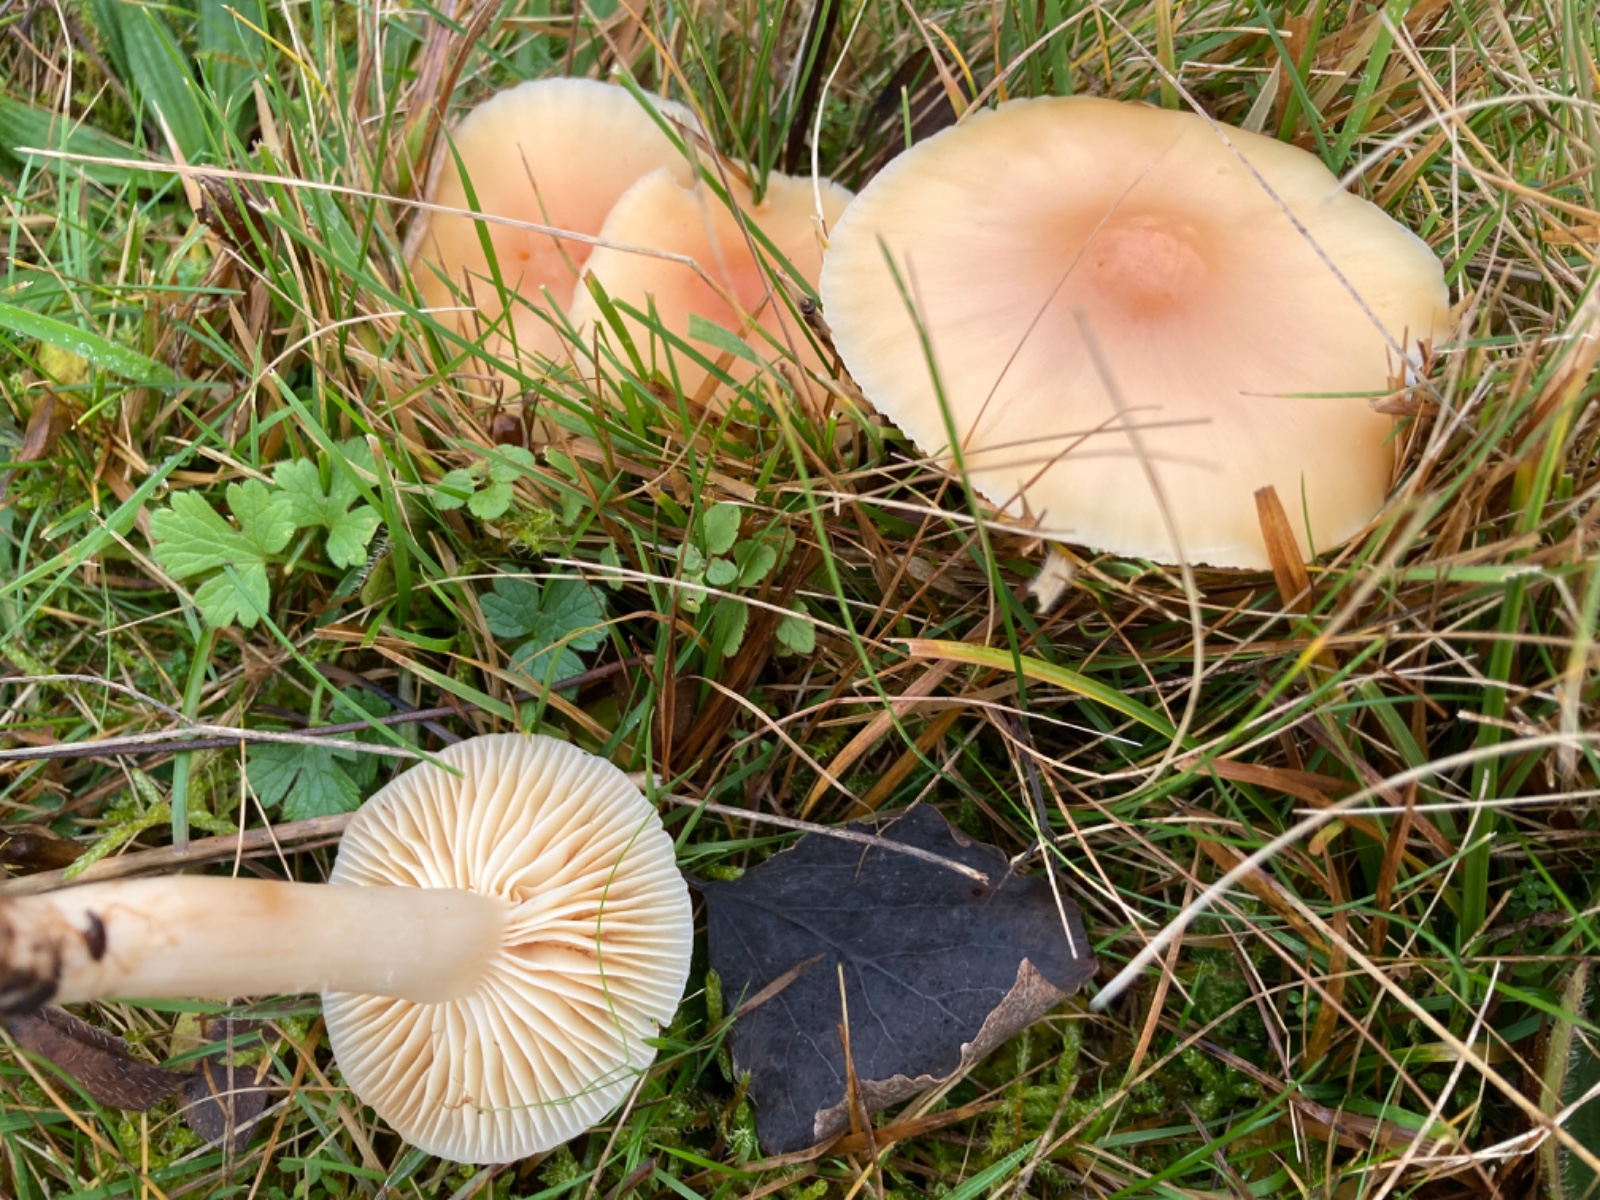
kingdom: Fungi
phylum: Basidiomycota
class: Agaricomycetes
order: Agaricales
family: Hygrophoraceae
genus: Cuphophyllus
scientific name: Cuphophyllus pratensis
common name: eng-vokshat
